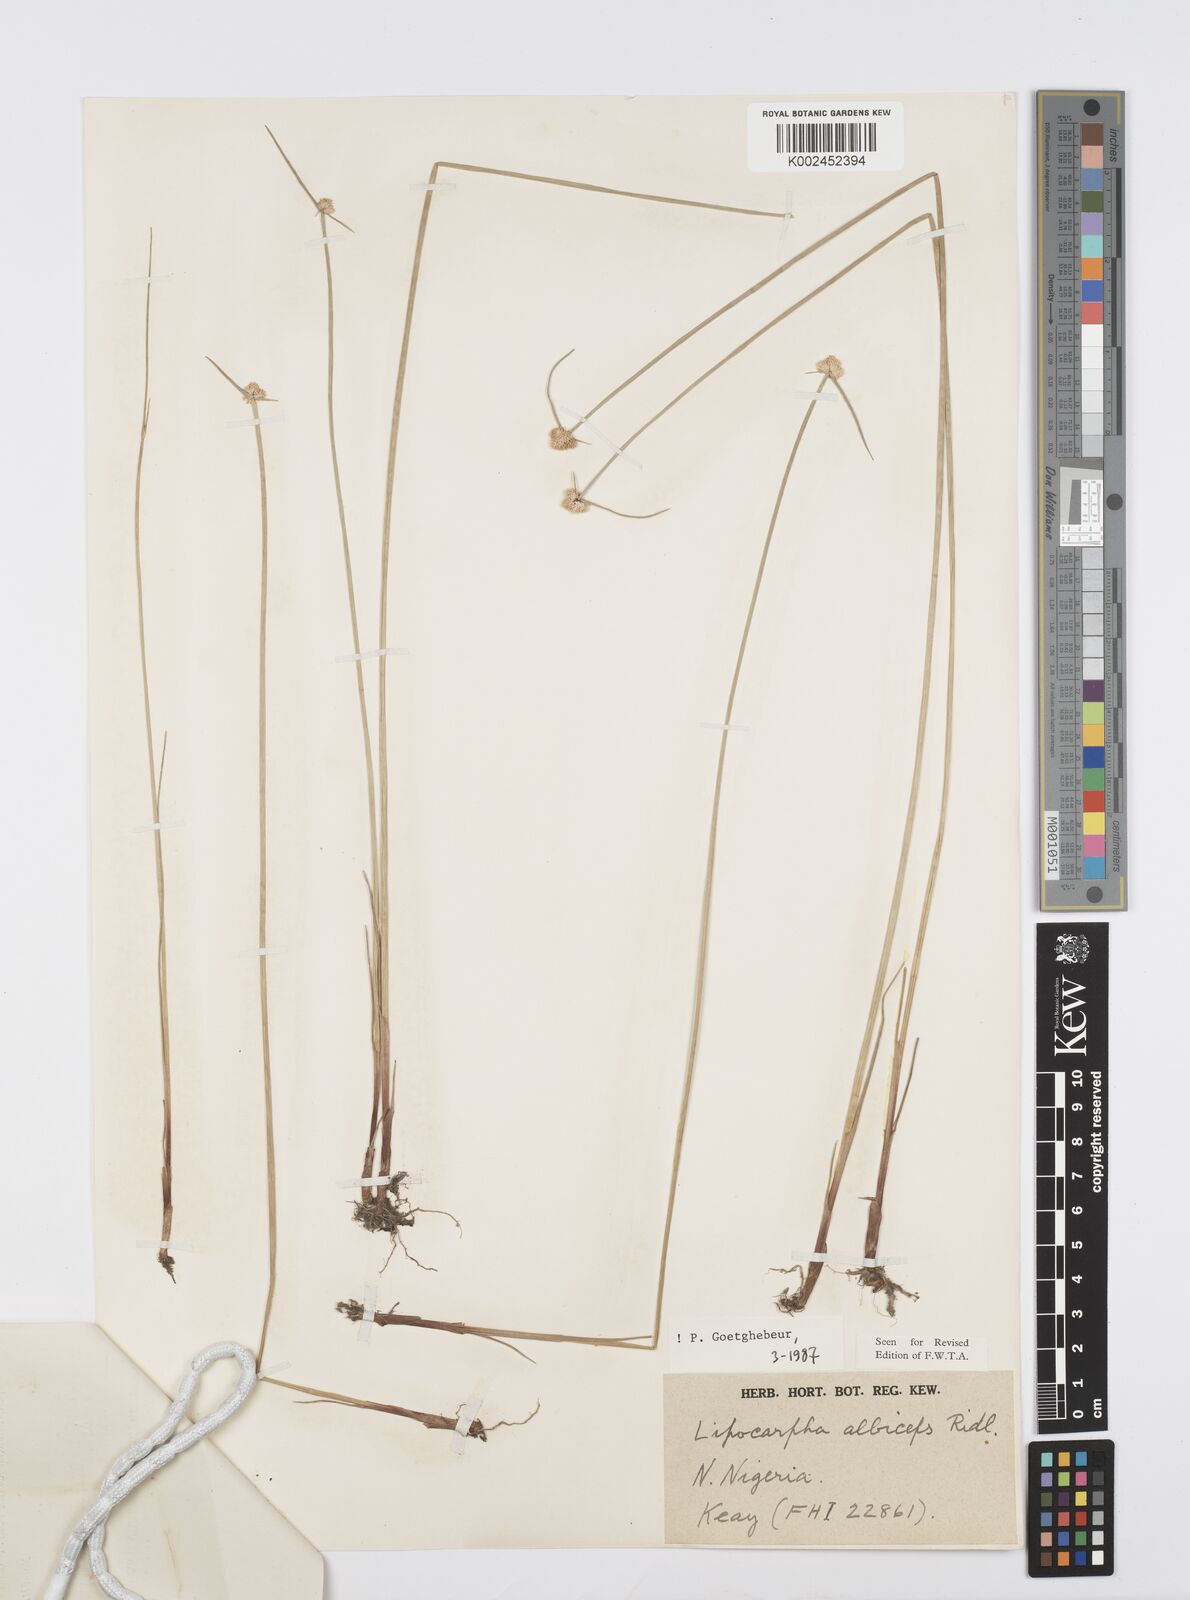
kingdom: Plantae
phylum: Tracheophyta
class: Liliopsida
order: Poales
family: Cyperaceae
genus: Cyperus
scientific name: Cyperus albiceps
